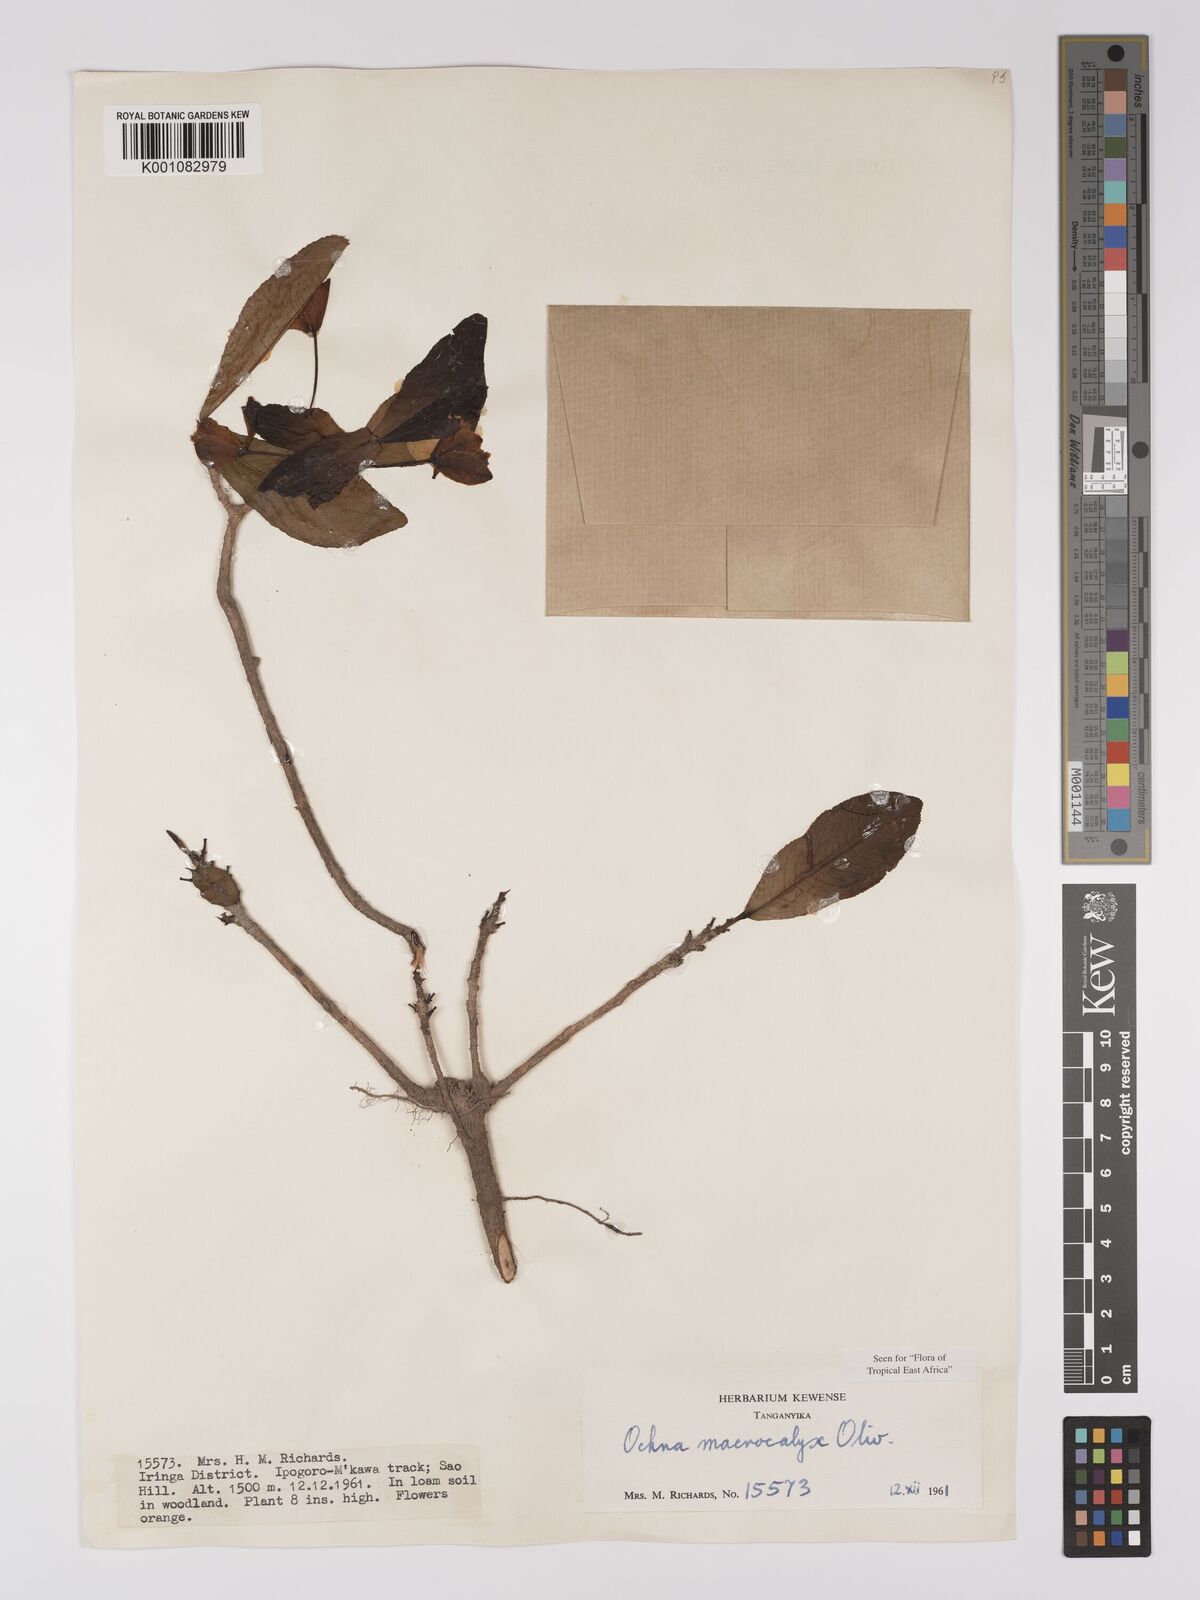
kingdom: Plantae
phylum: Tracheophyta
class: Magnoliopsida
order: Malpighiales
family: Ochnaceae
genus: Ochna
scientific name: Ochna macrocalyx
